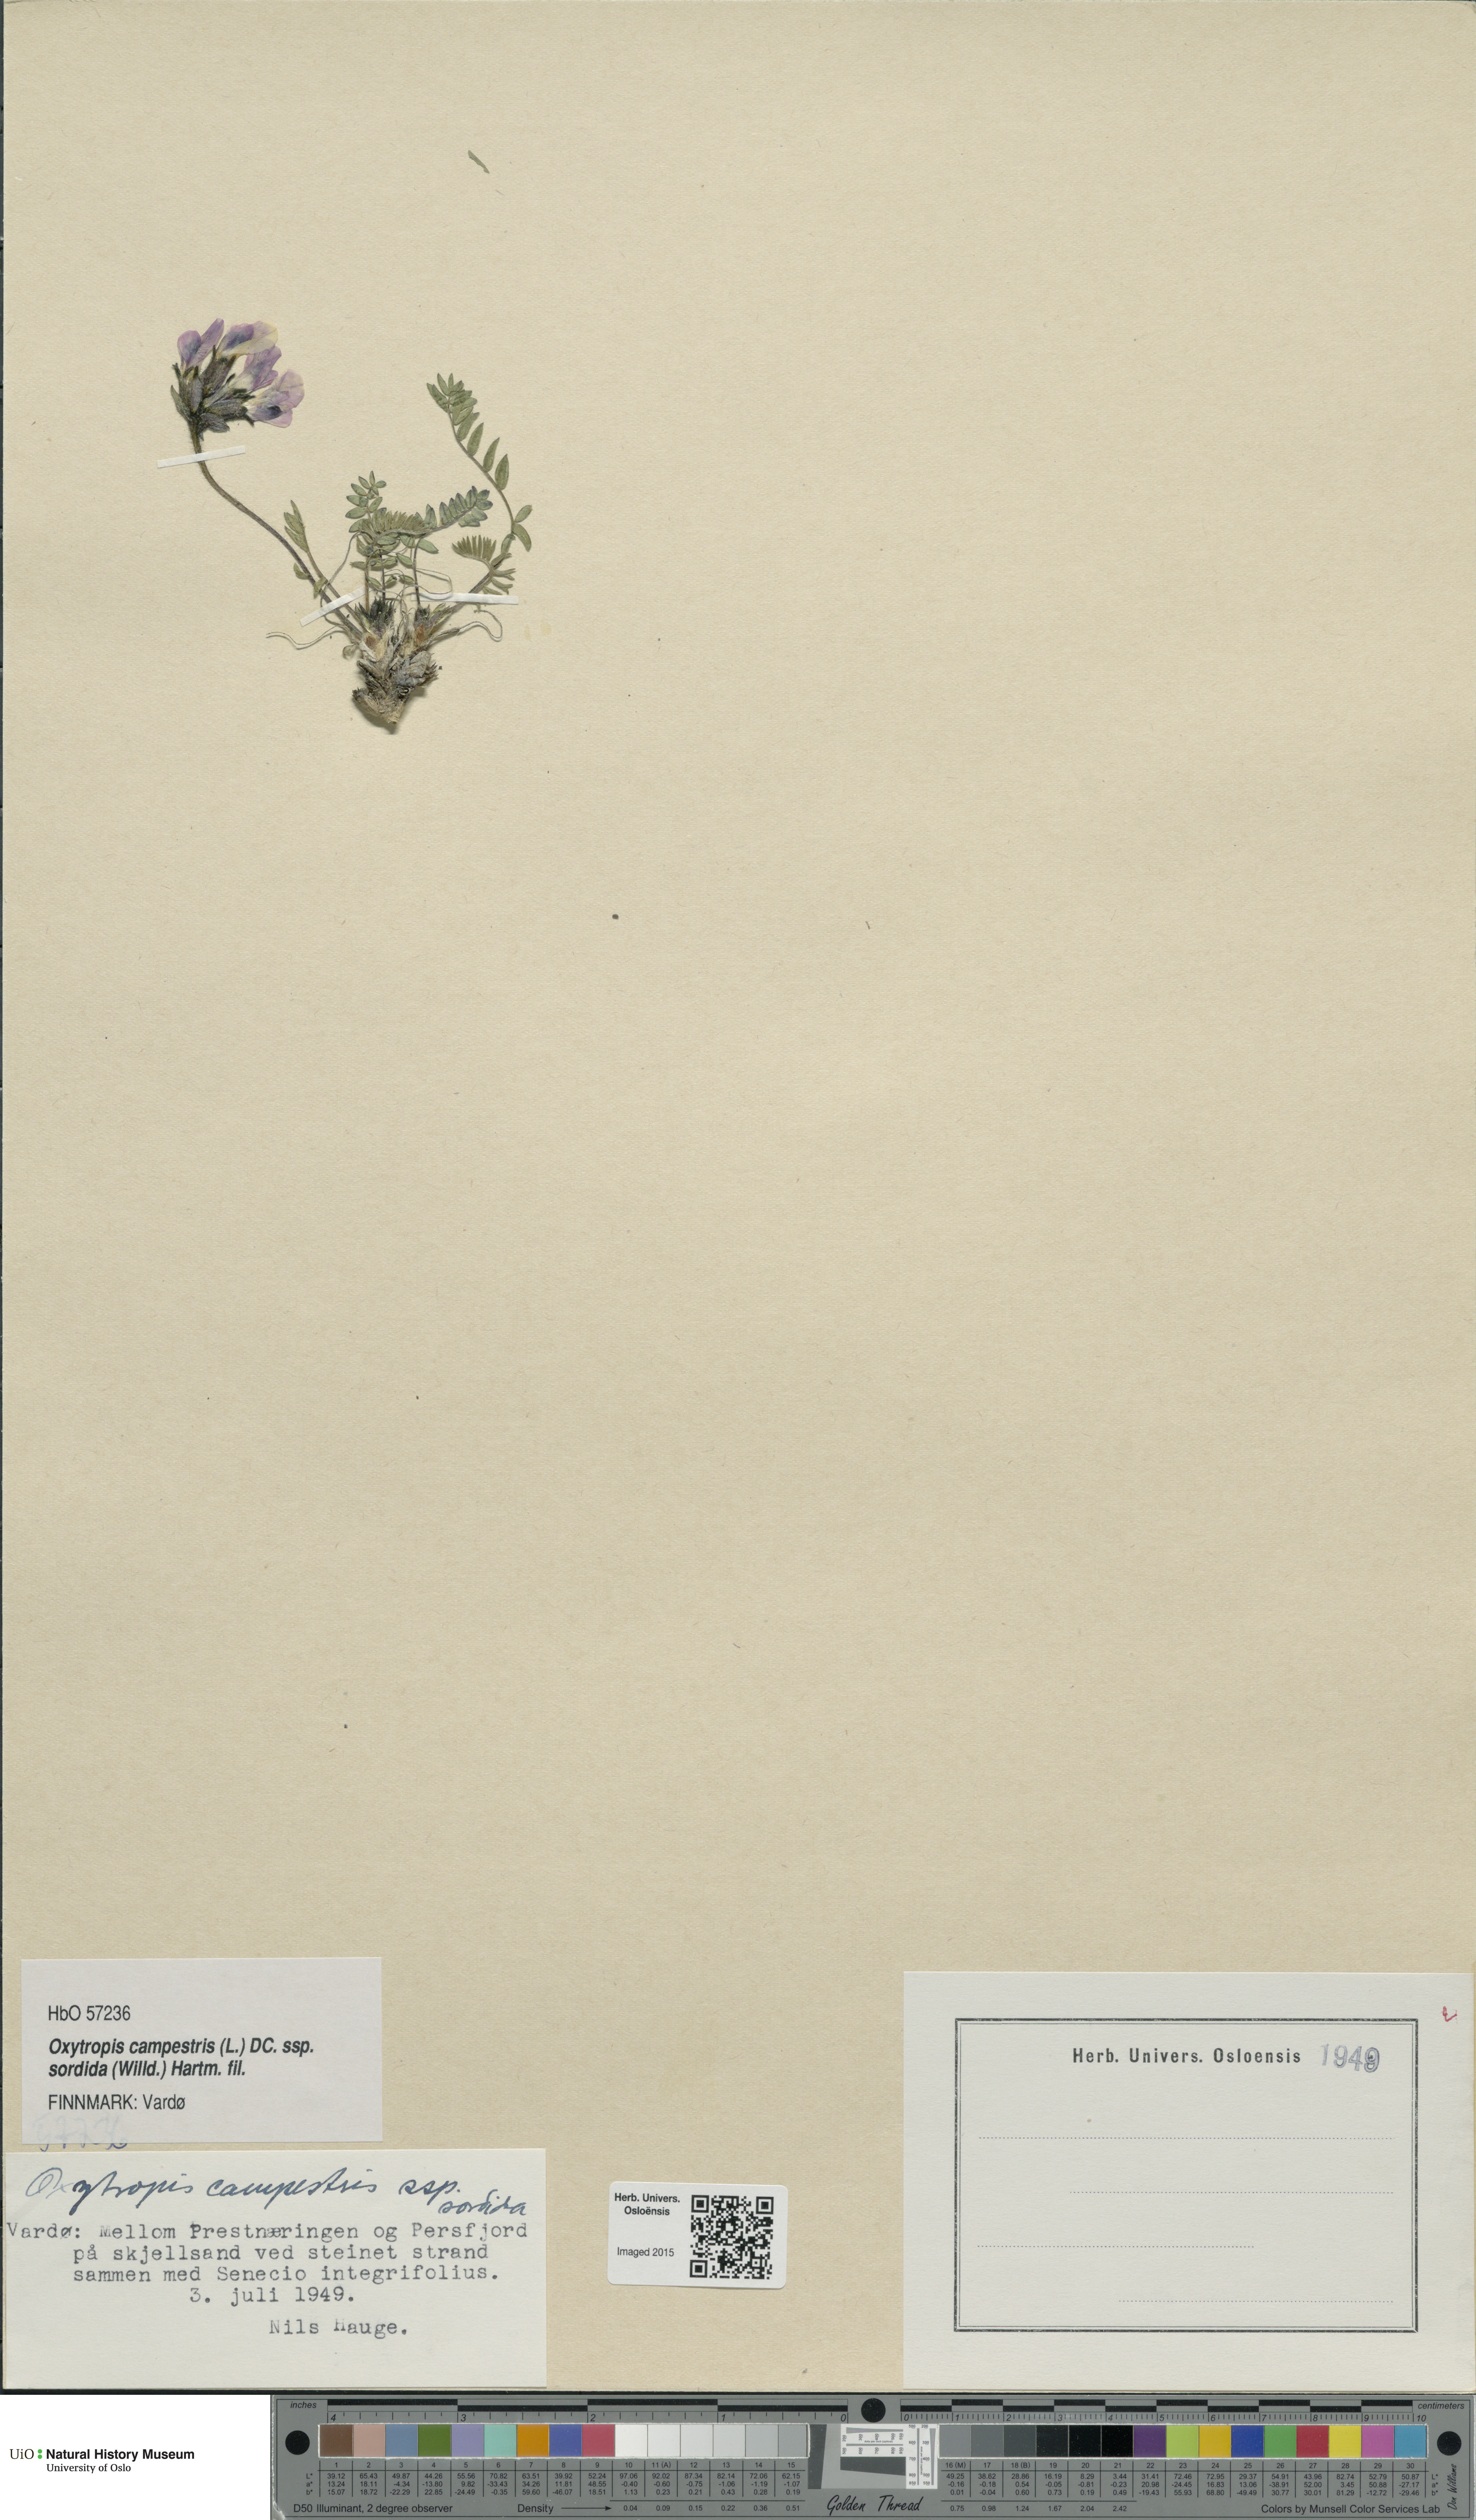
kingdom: Plantae
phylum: Tracheophyta
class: Magnoliopsida
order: Fabales
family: Fabaceae
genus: Oxytropis
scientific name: Oxytropis sordida
